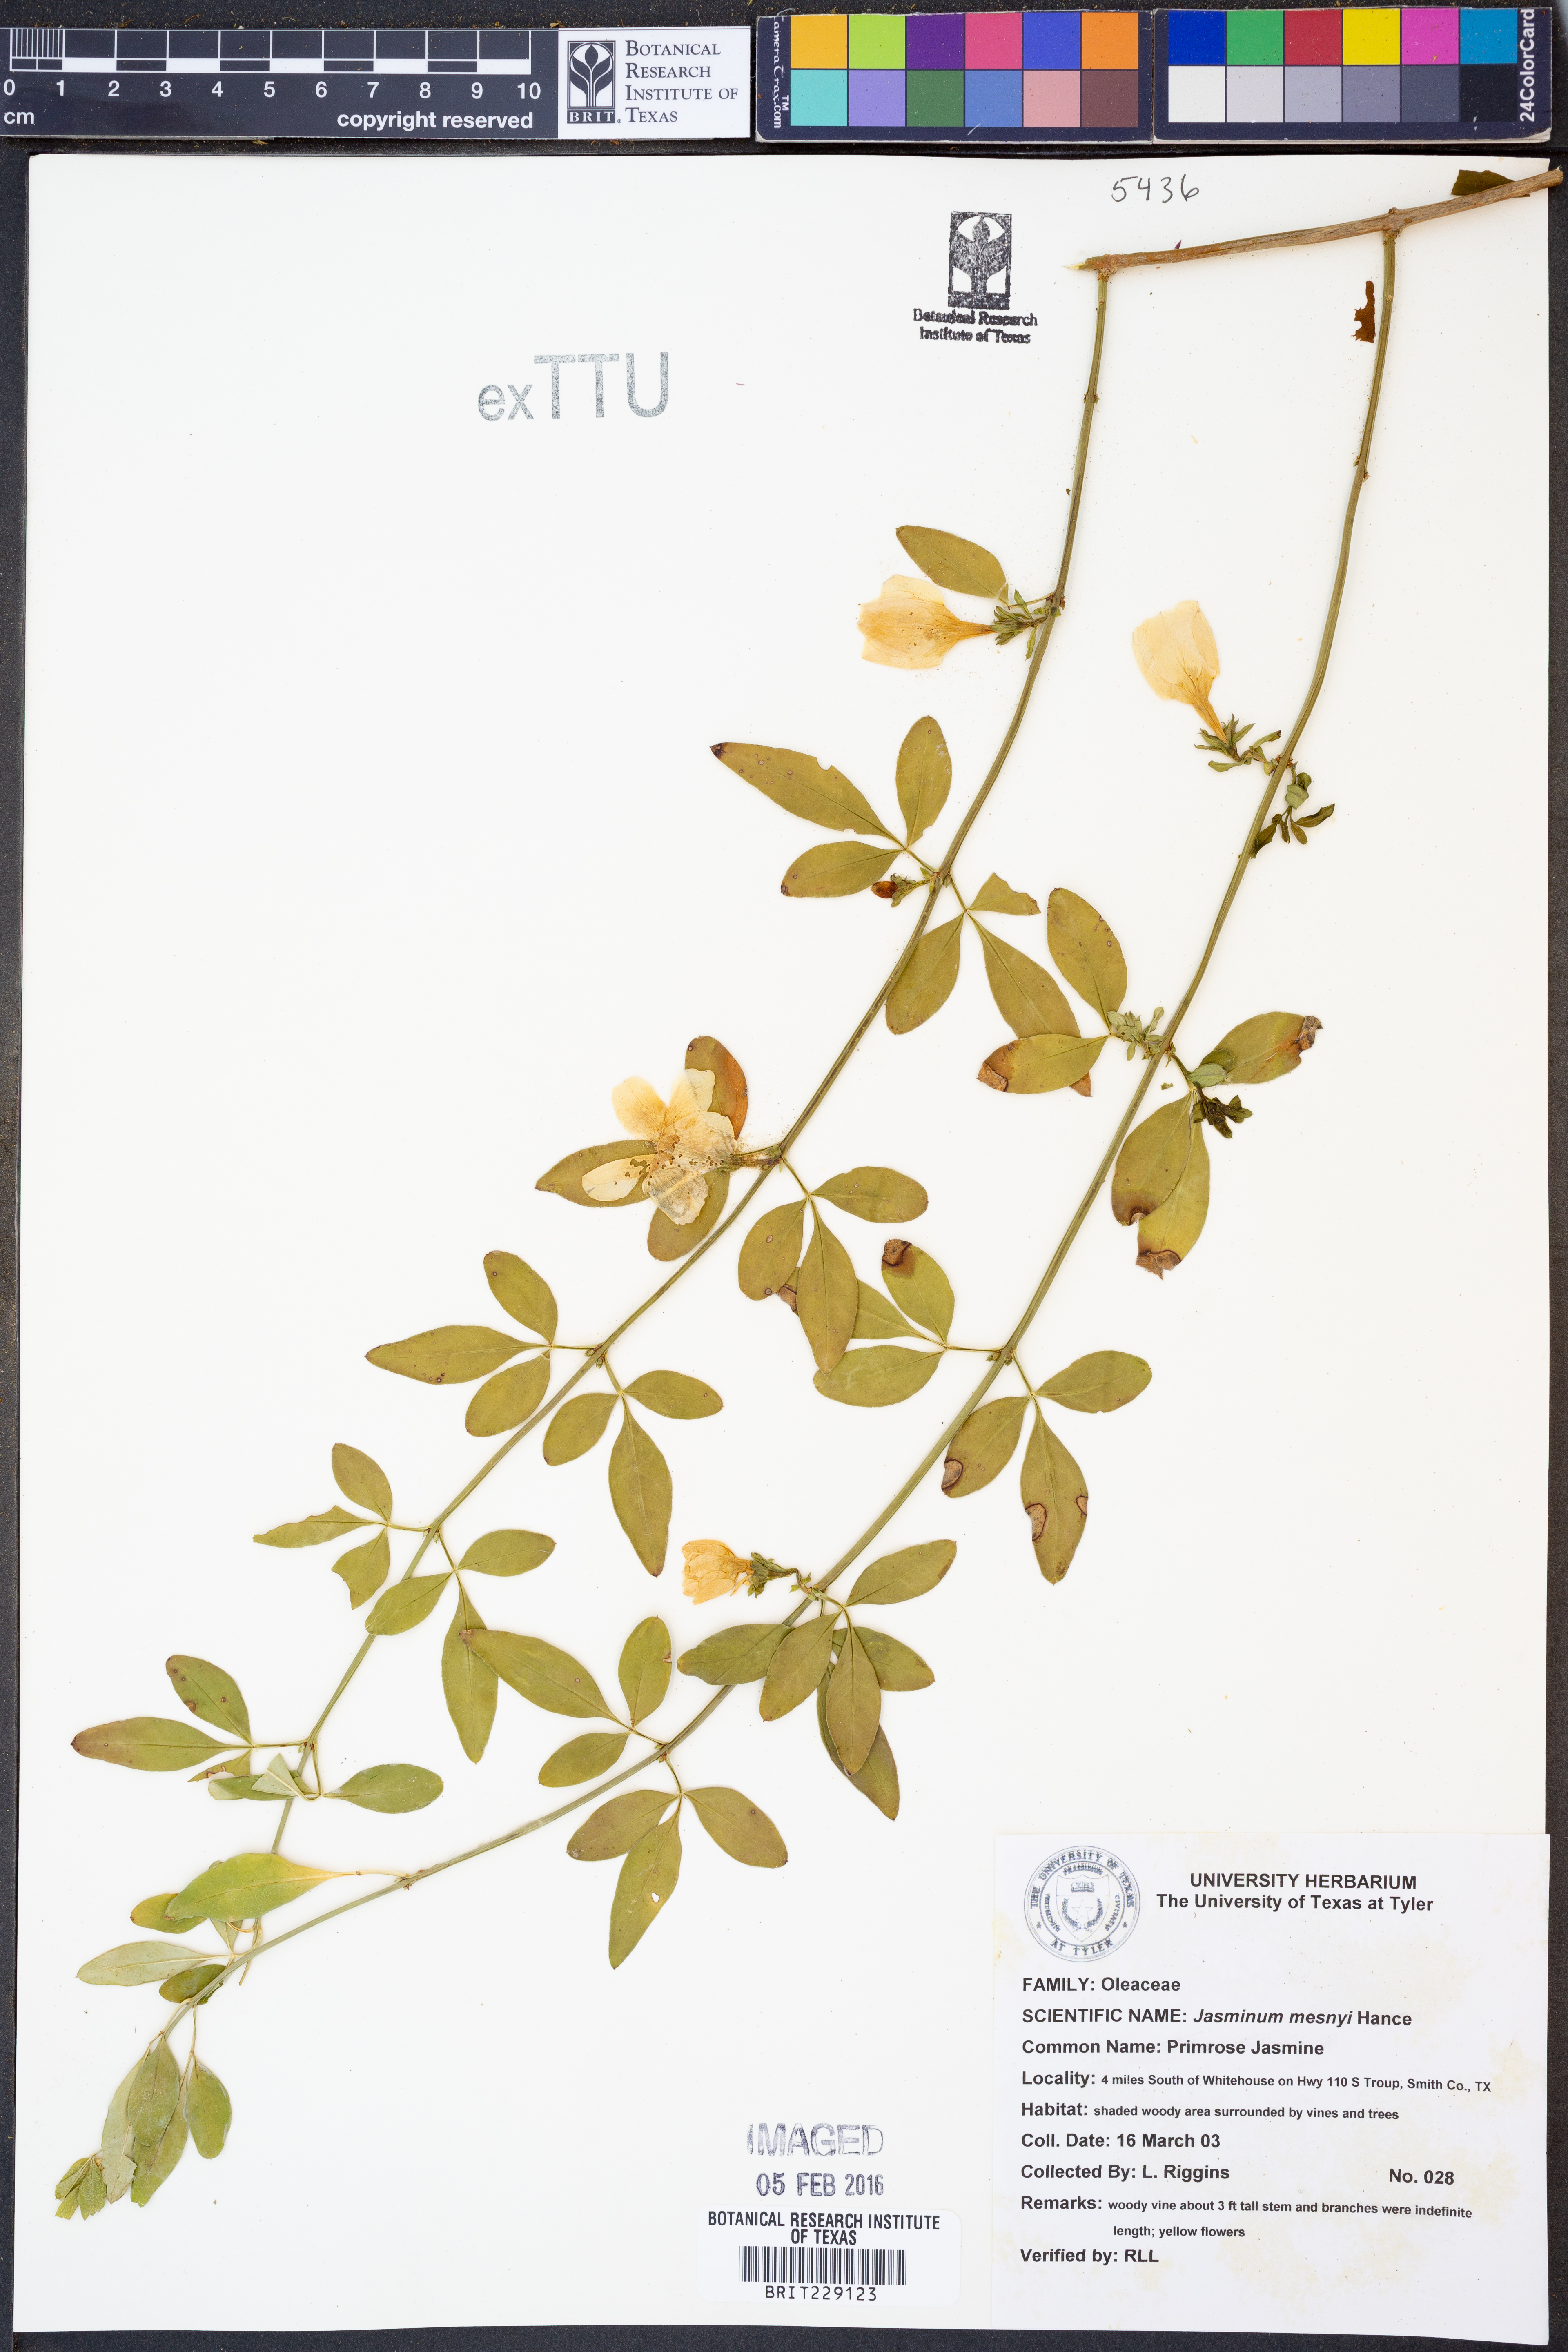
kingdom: Plantae
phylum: Tracheophyta
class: Magnoliopsida
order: Lamiales
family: Oleaceae
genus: Jasminum
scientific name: Jasminum mesnyi
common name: Japanese jasmine
